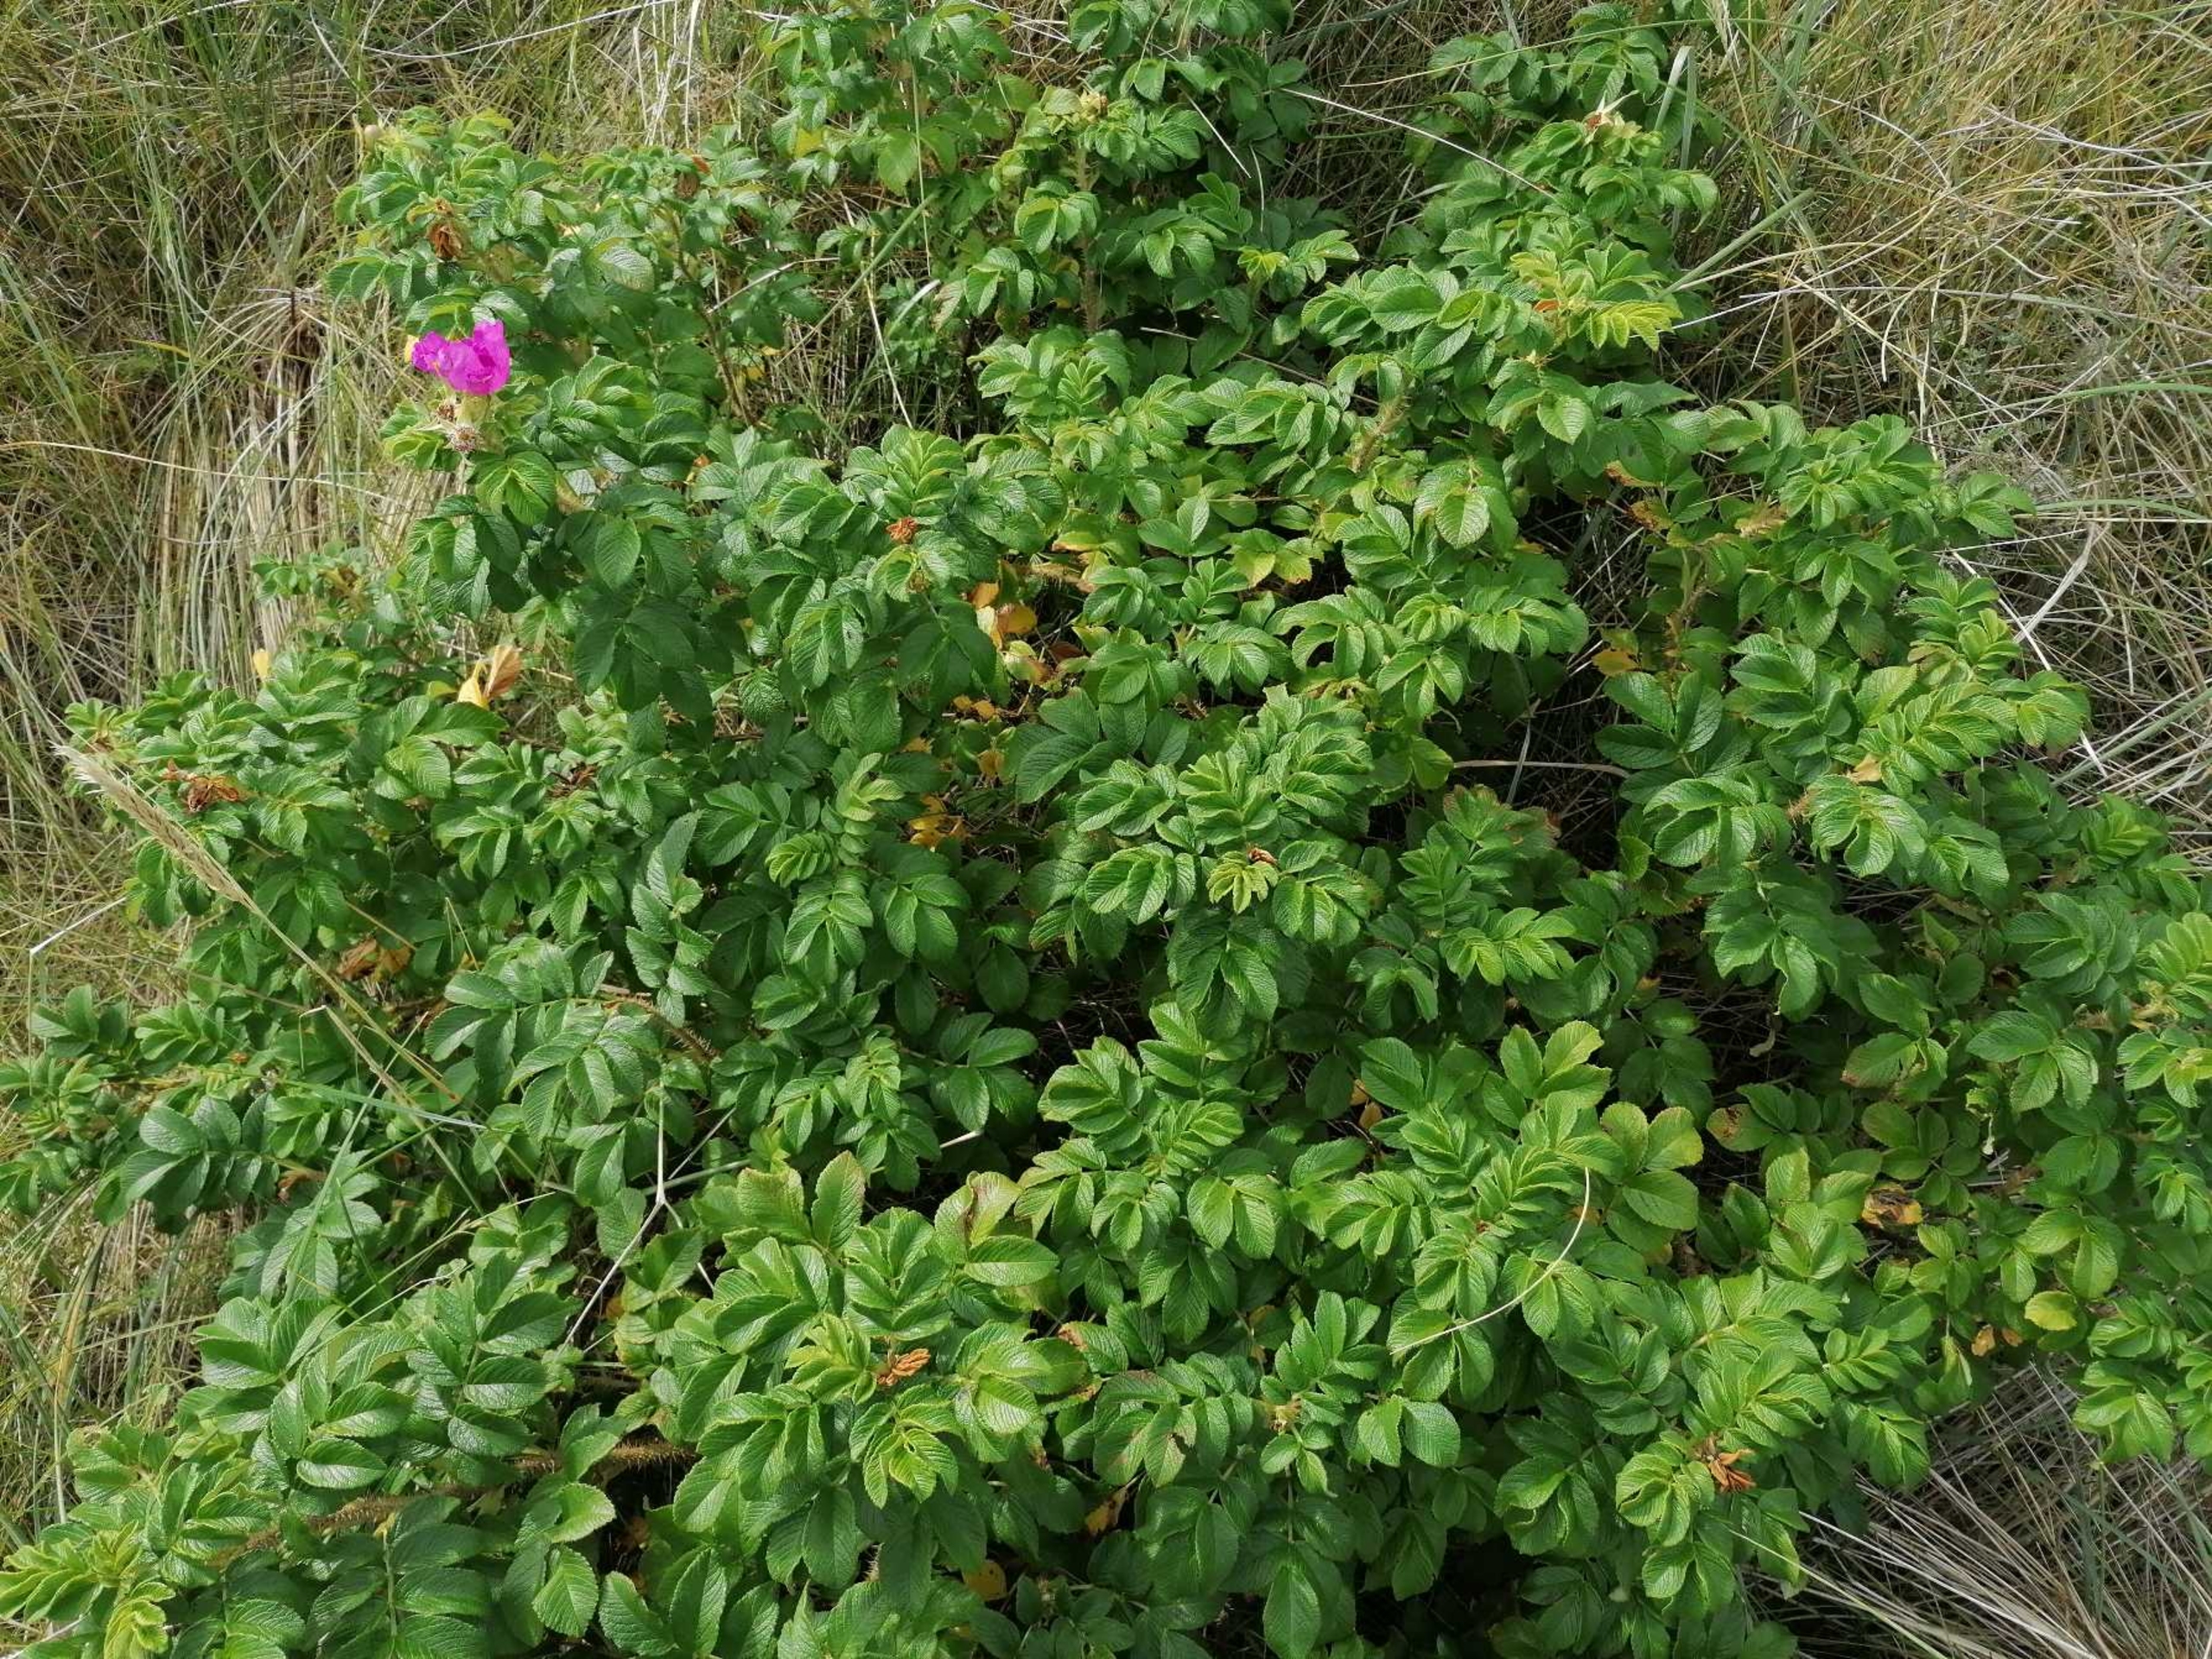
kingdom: Plantae
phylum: Tracheophyta
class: Magnoliopsida
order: Rosales
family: Rosaceae
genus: Rosa
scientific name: Rosa rugosa
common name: Rynket rose
